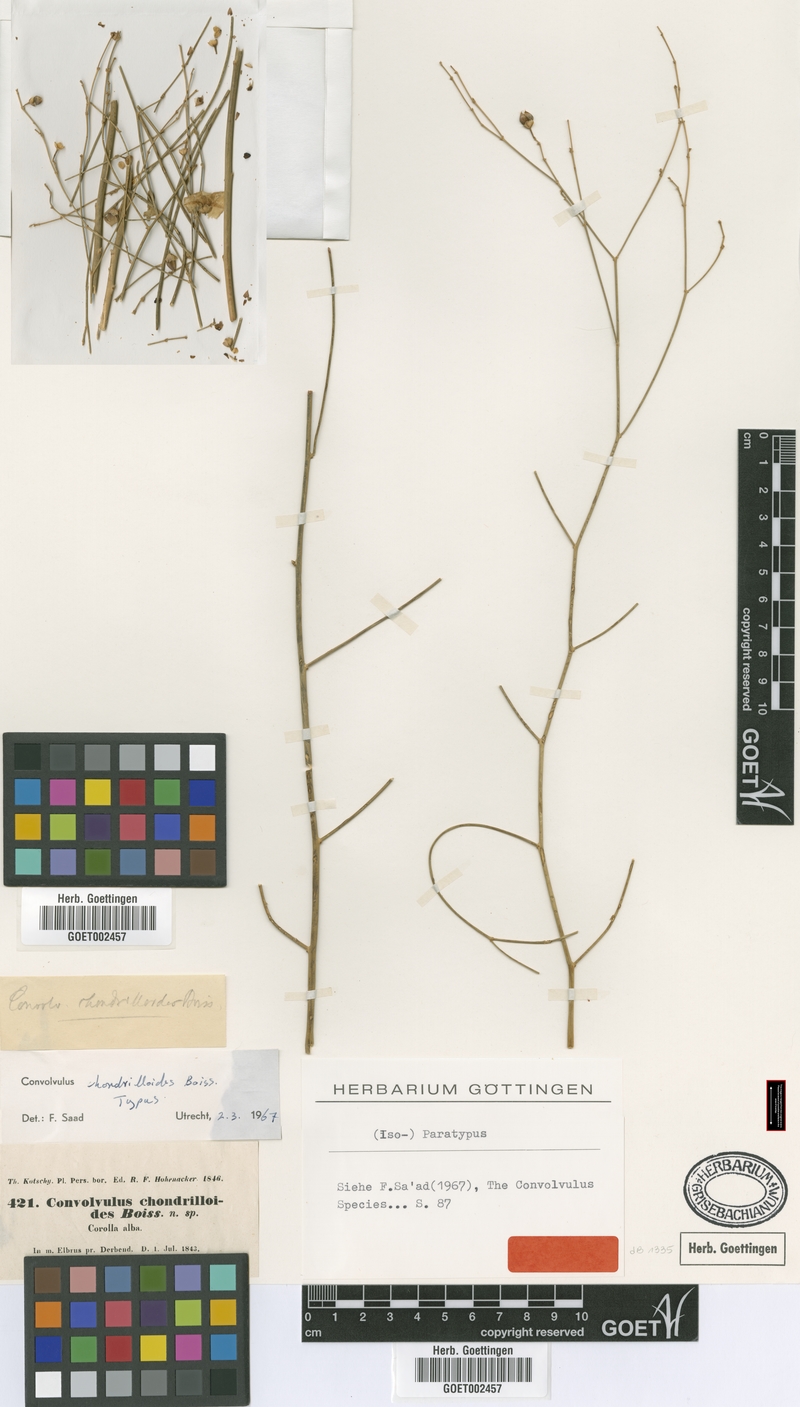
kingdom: Plantae
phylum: Tracheophyta
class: Magnoliopsida
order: Solanales
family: Convolvulaceae
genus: Convolvulus
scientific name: Convolvulus chondrilloides
